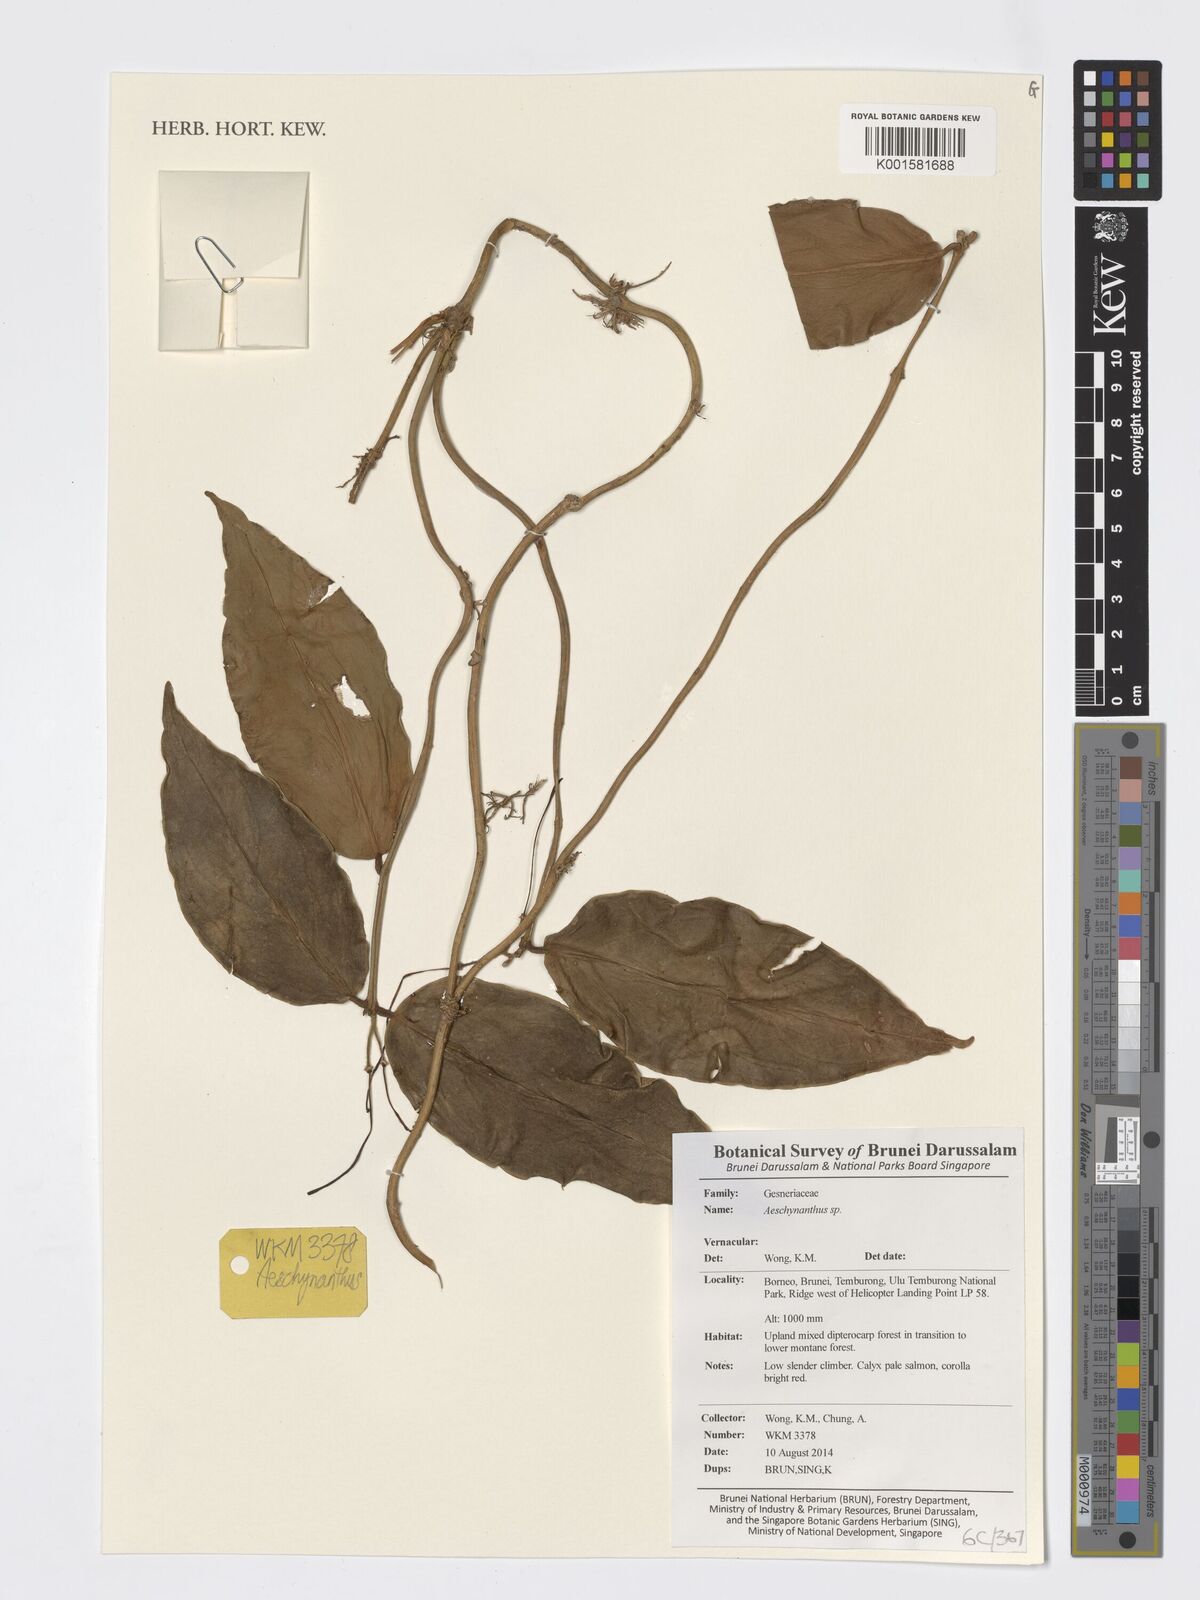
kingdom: Plantae
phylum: Tracheophyta
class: Magnoliopsida
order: Lamiales
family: Gesneriaceae
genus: Aeschynanthus
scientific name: Aeschynanthus
